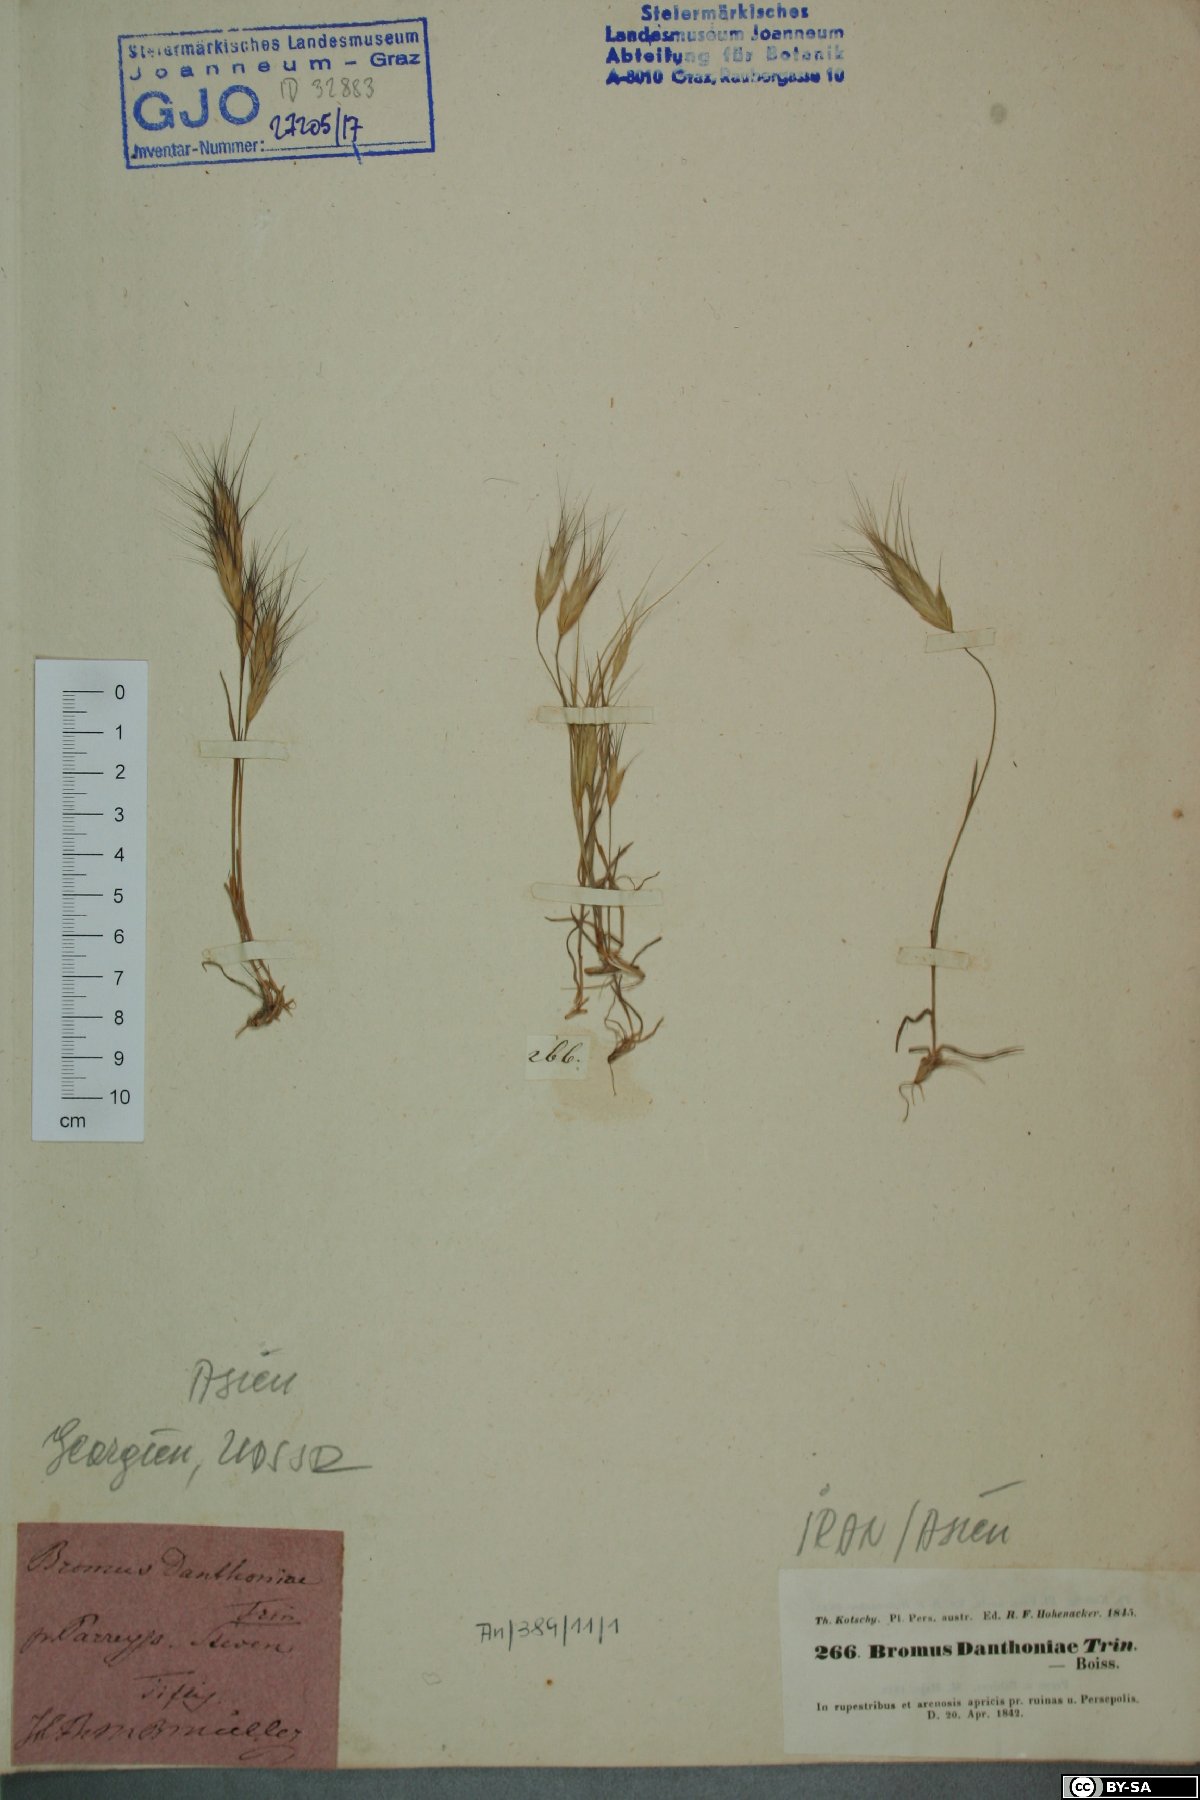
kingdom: Plantae
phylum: Tracheophyta
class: Liliopsida
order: Poales
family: Poaceae
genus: Bromus
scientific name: Bromus danthoniae
